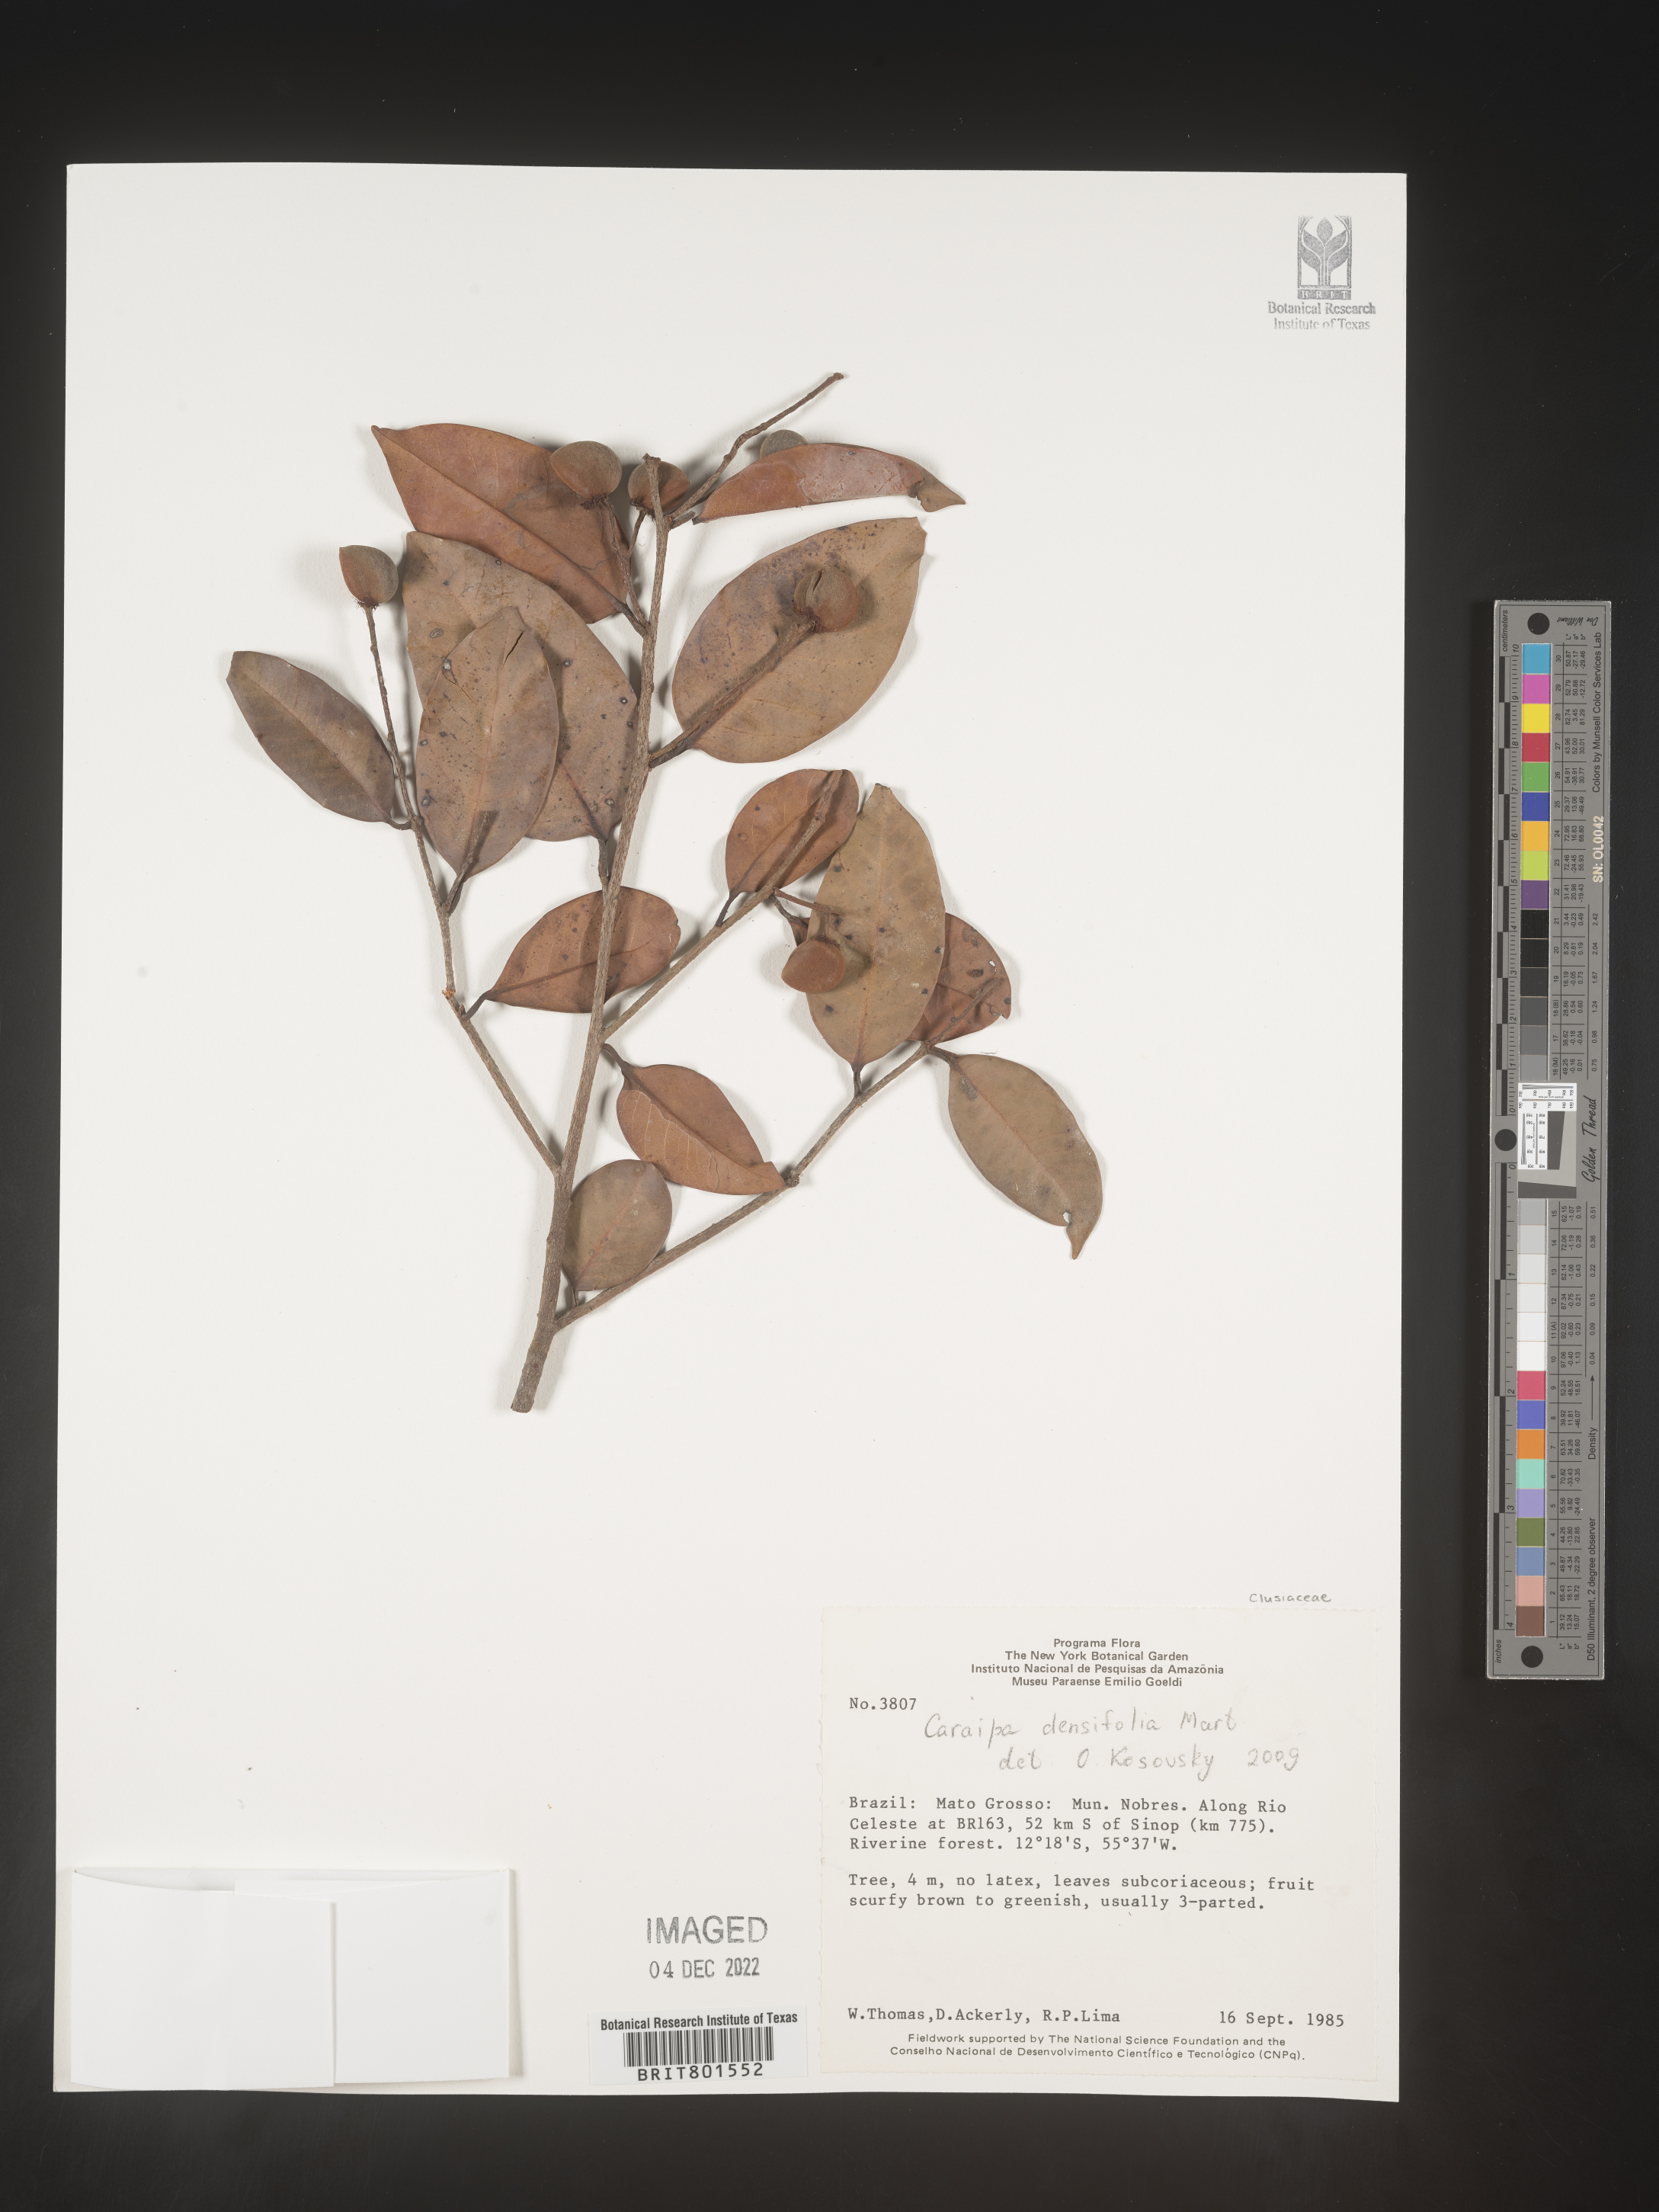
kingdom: Plantae
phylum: Tracheophyta
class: Magnoliopsida
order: Malpighiales
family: Calophyllaceae
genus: Caraipa
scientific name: Caraipa
